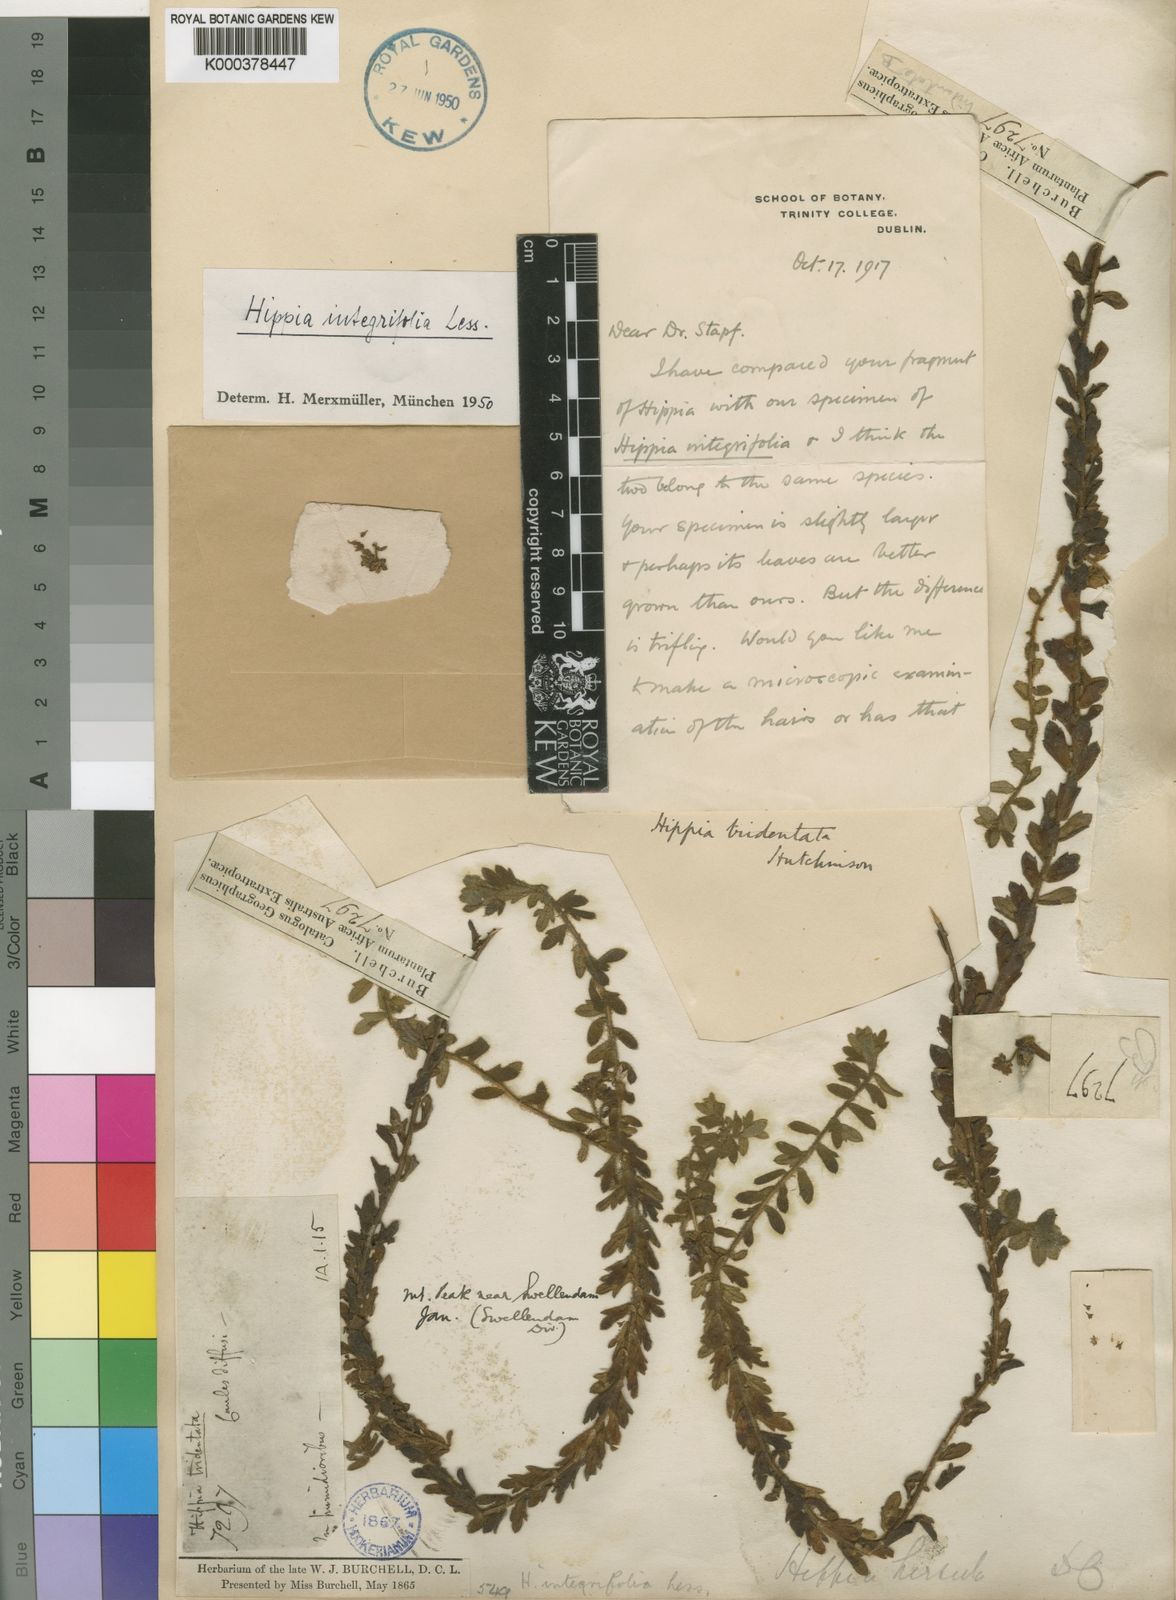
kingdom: Plantae
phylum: Tracheophyta
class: Magnoliopsida
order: Asterales
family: Asteraceae
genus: Hippia
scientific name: Hippia integrifolia
